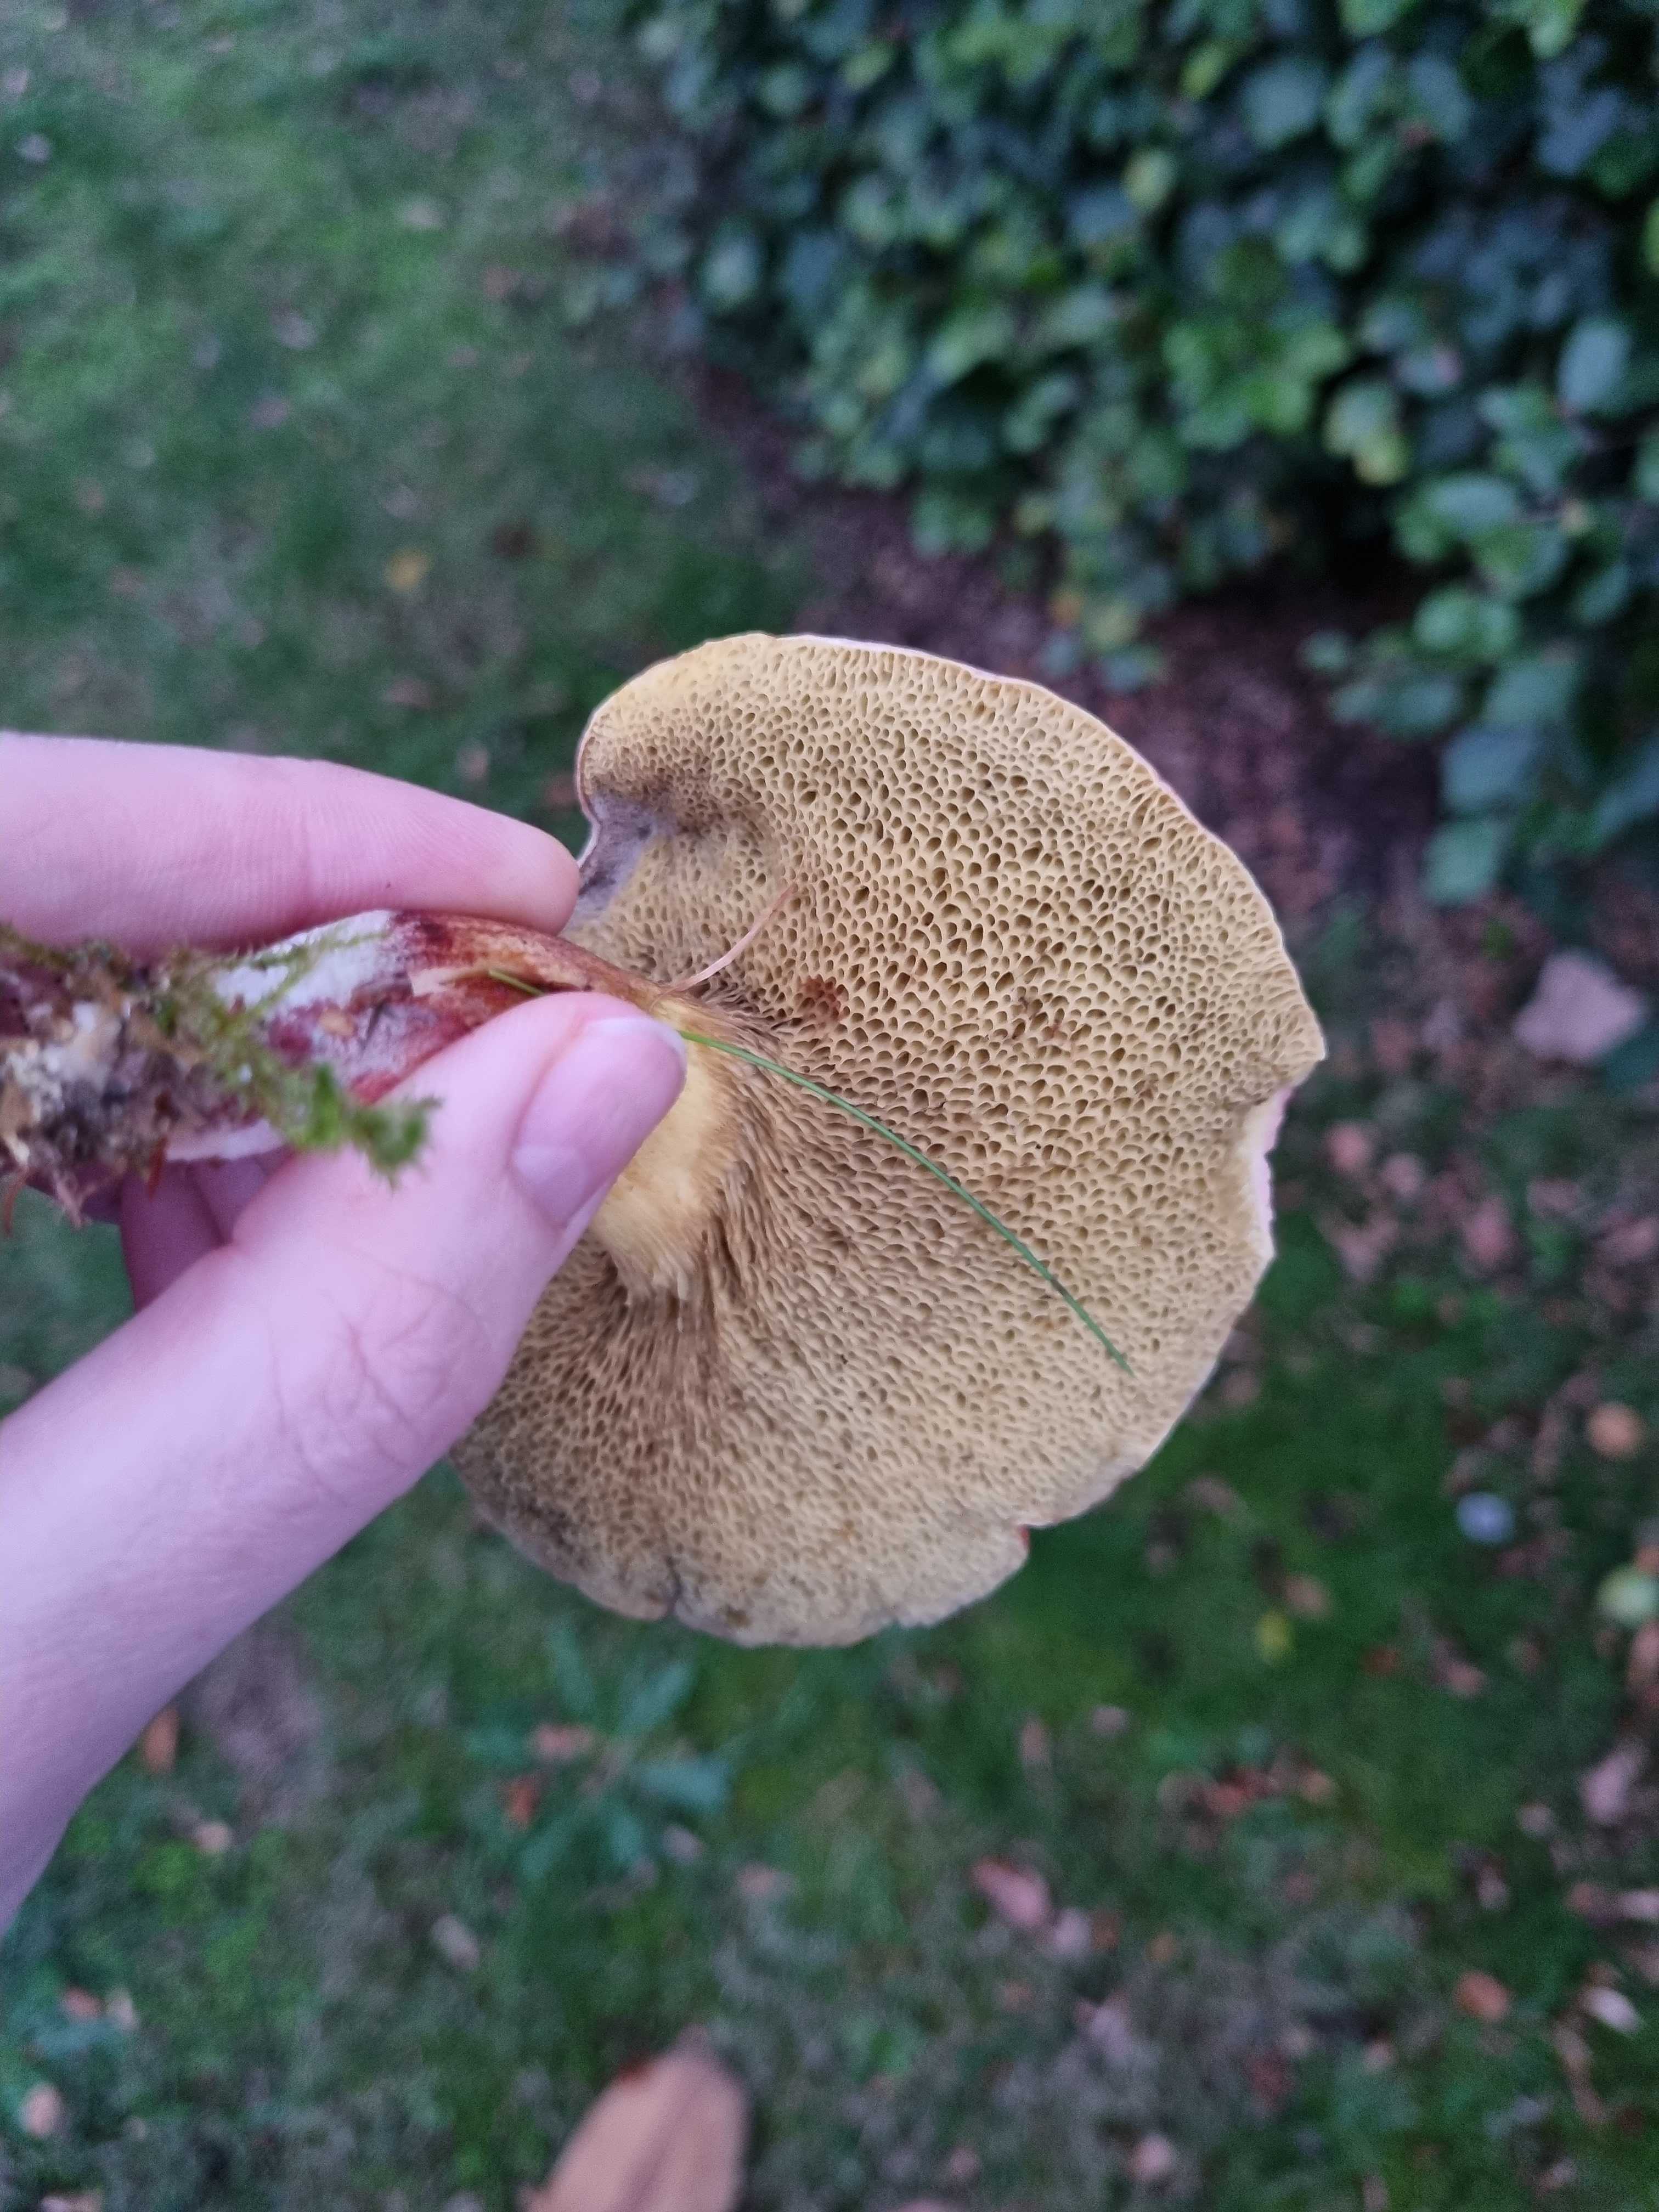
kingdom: Fungi
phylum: Basidiomycota
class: Agaricomycetes
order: Boletales
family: Boletaceae
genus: Xerocomellus
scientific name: Xerocomellus cisalpinus
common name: finsprukken rørhat
